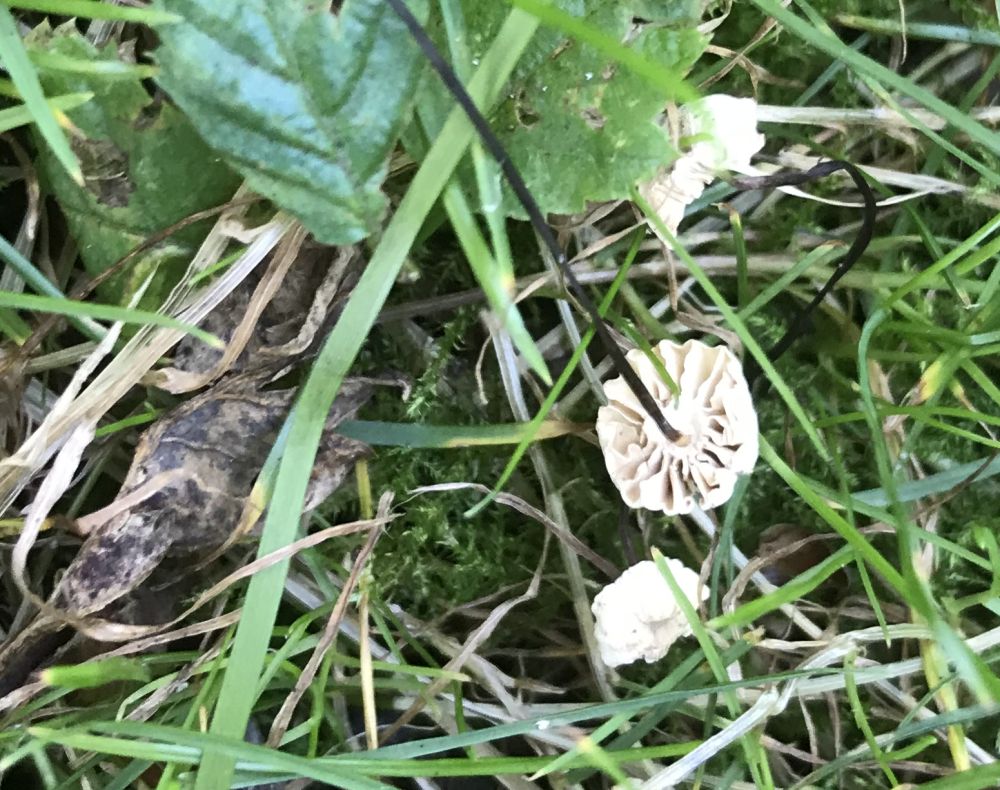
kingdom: Fungi
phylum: Basidiomycota
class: Agaricomycetes
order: Agaricales
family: Marasmiaceae
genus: Marasmius
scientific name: Marasmius rotula
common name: hjul-bruskhat
